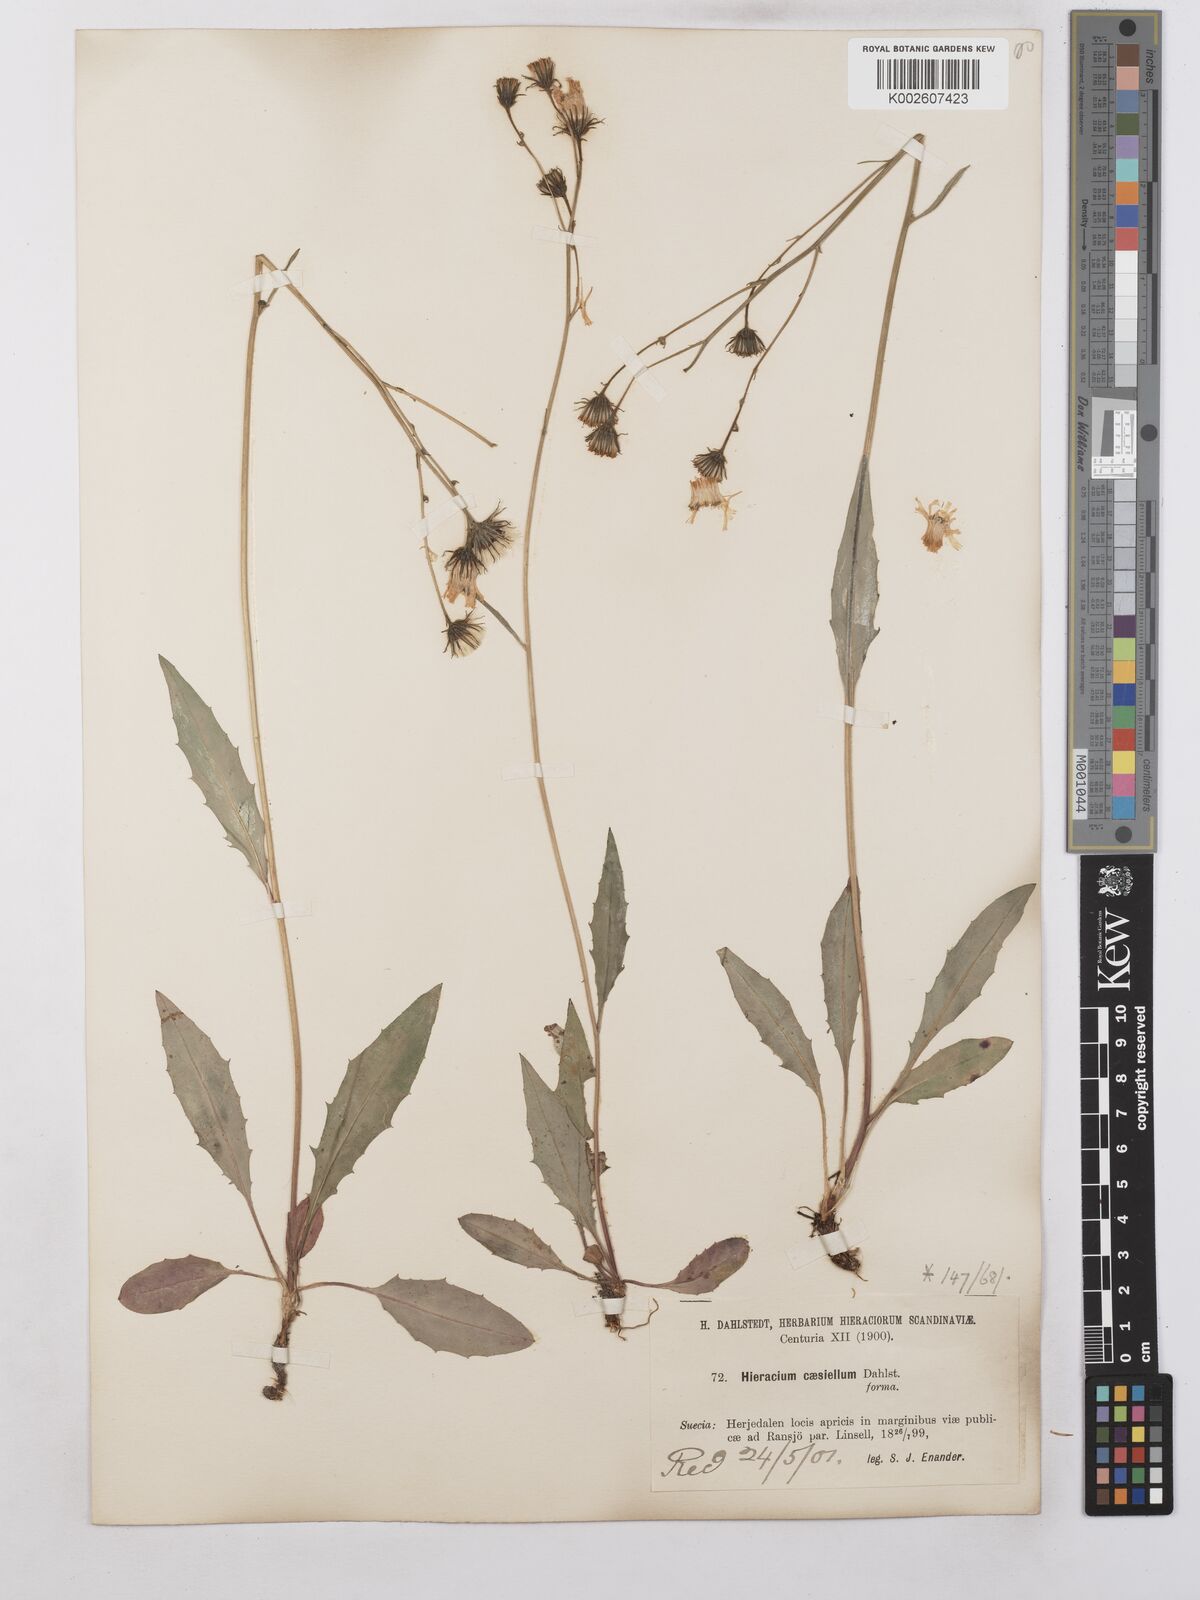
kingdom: Plantae
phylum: Tracheophyta
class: Magnoliopsida
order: Asterales
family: Asteraceae
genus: Hieracium
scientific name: Hieracium caesium
